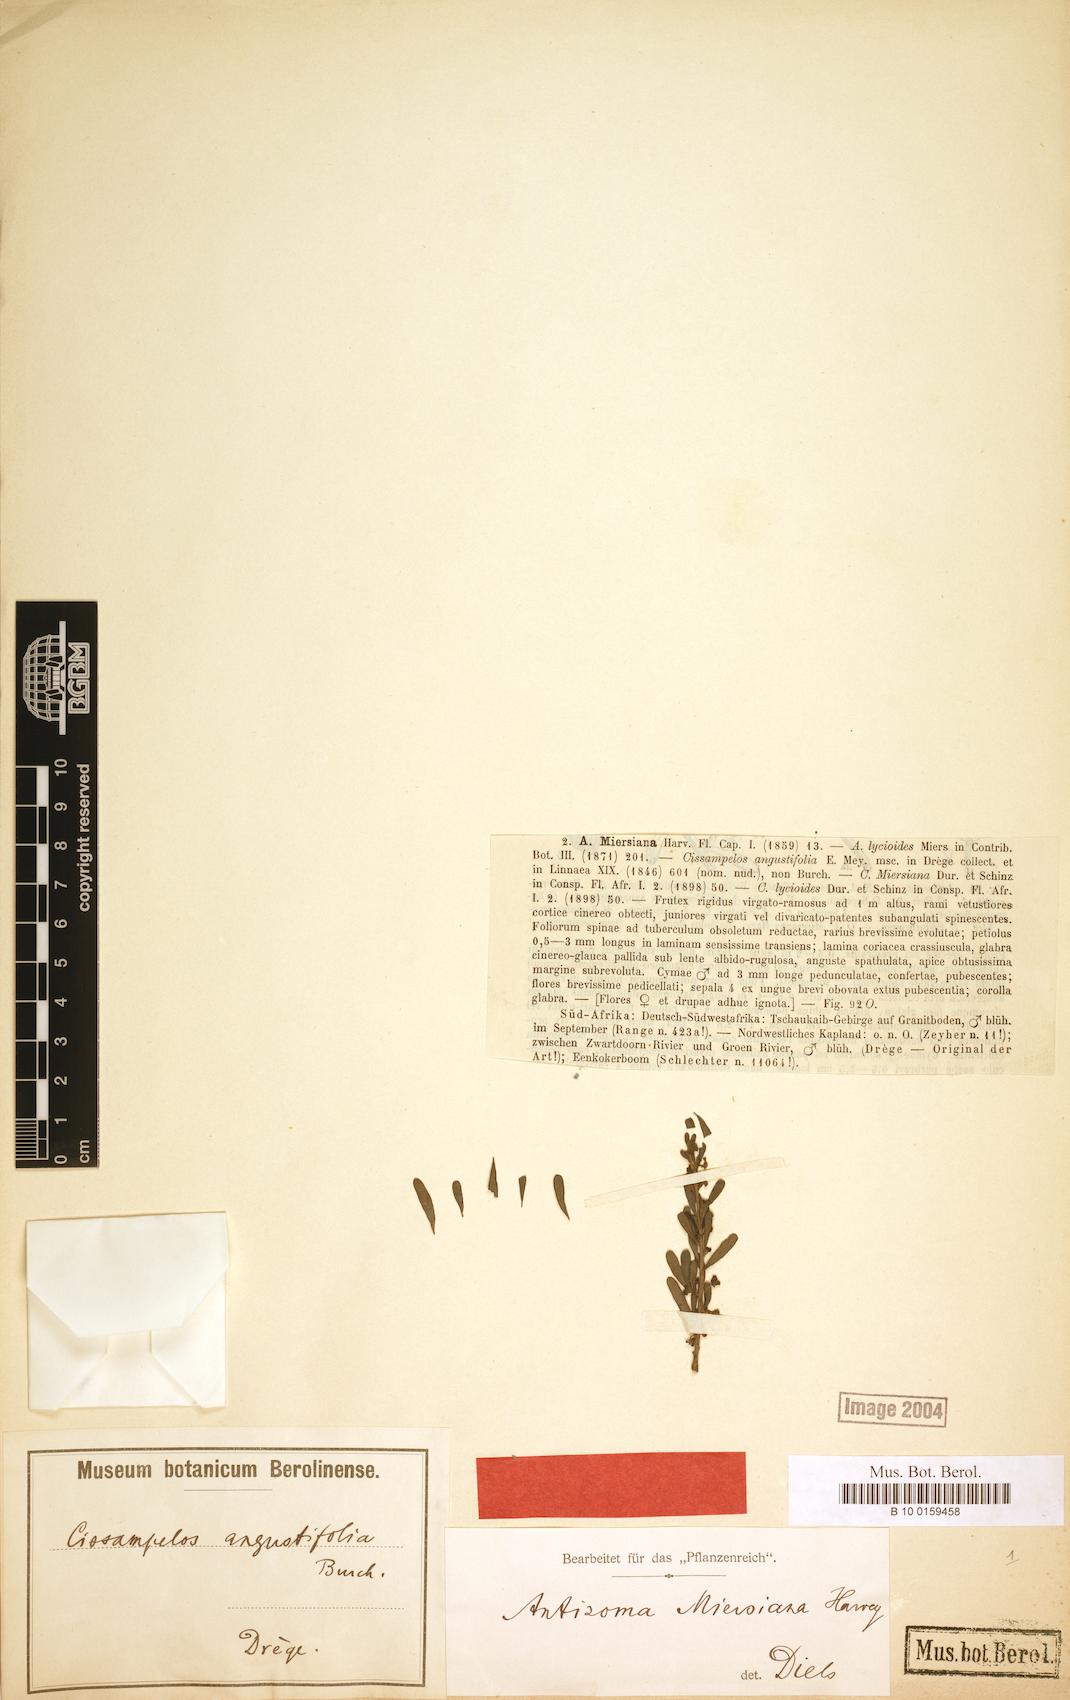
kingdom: Plantae
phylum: Tracheophyta
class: Magnoliopsida
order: Ranunculales
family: Menispermaceae
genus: Antizoma
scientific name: Antizoma miersiana
